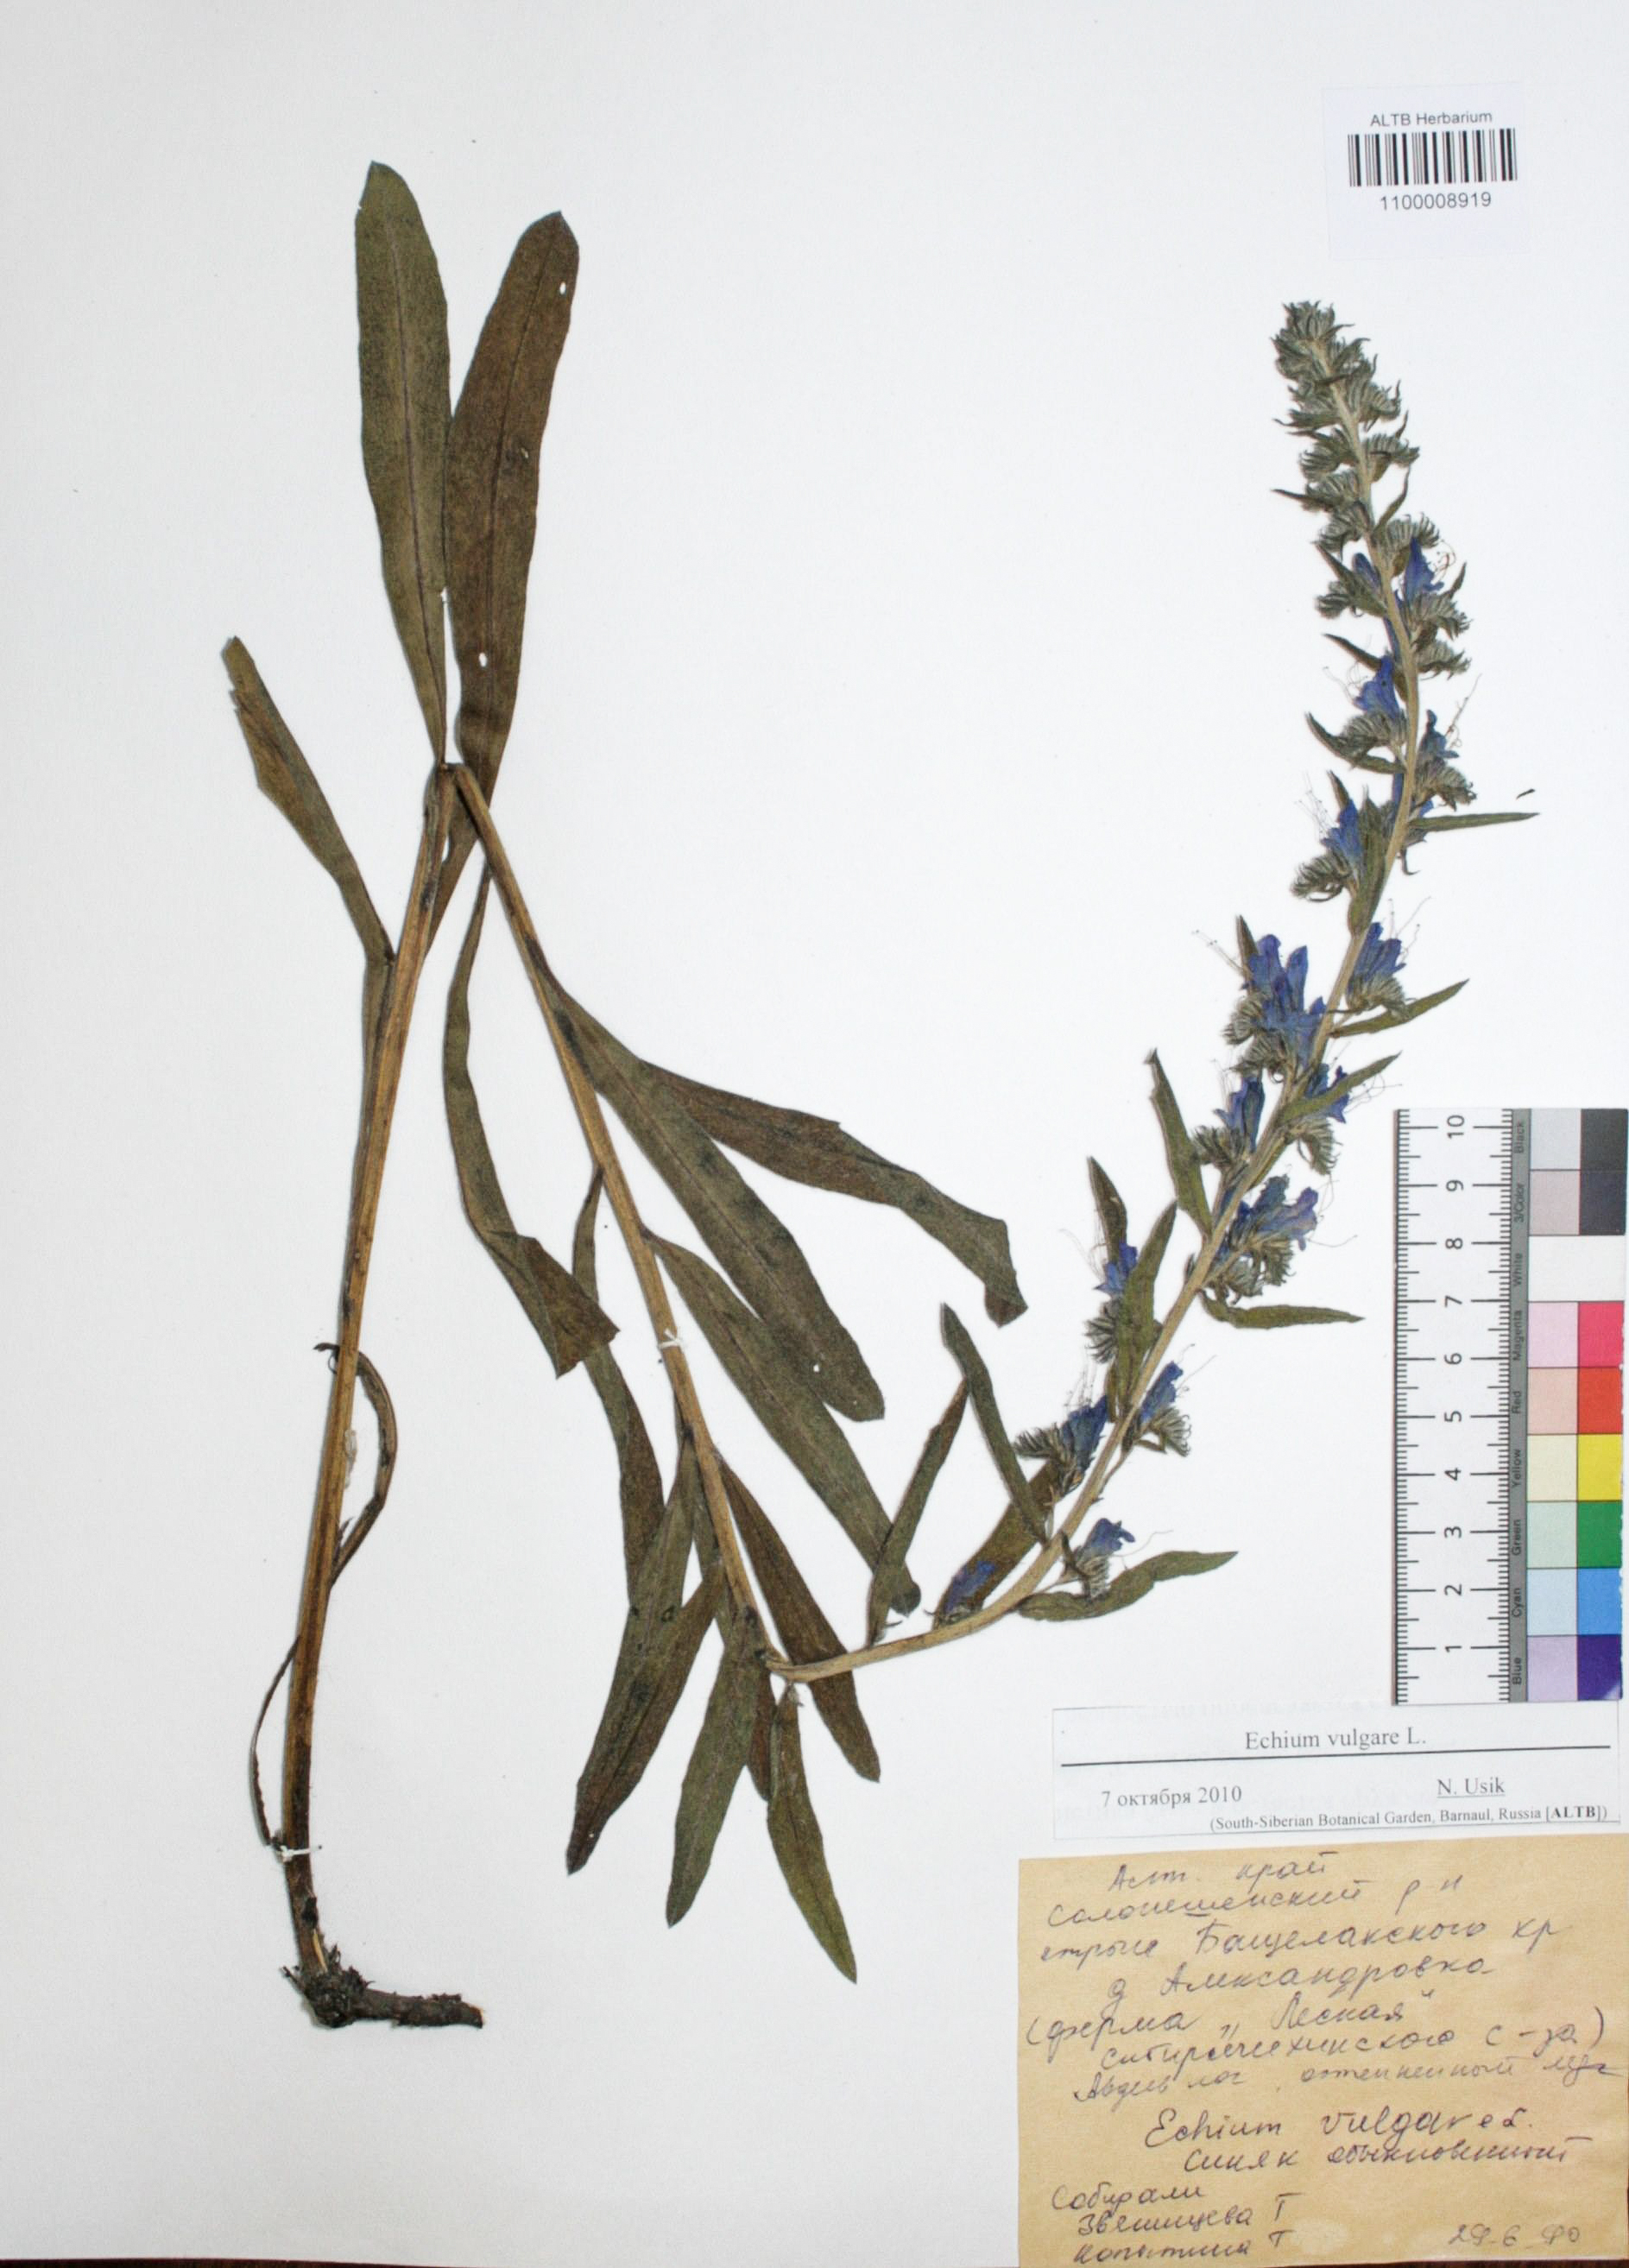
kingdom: Plantae
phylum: Tracheophyta
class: Magnoliopsida
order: Boraginales
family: Boraginaceae
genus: Echium
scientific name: Echium vulgare
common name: Common viper's bugloss
